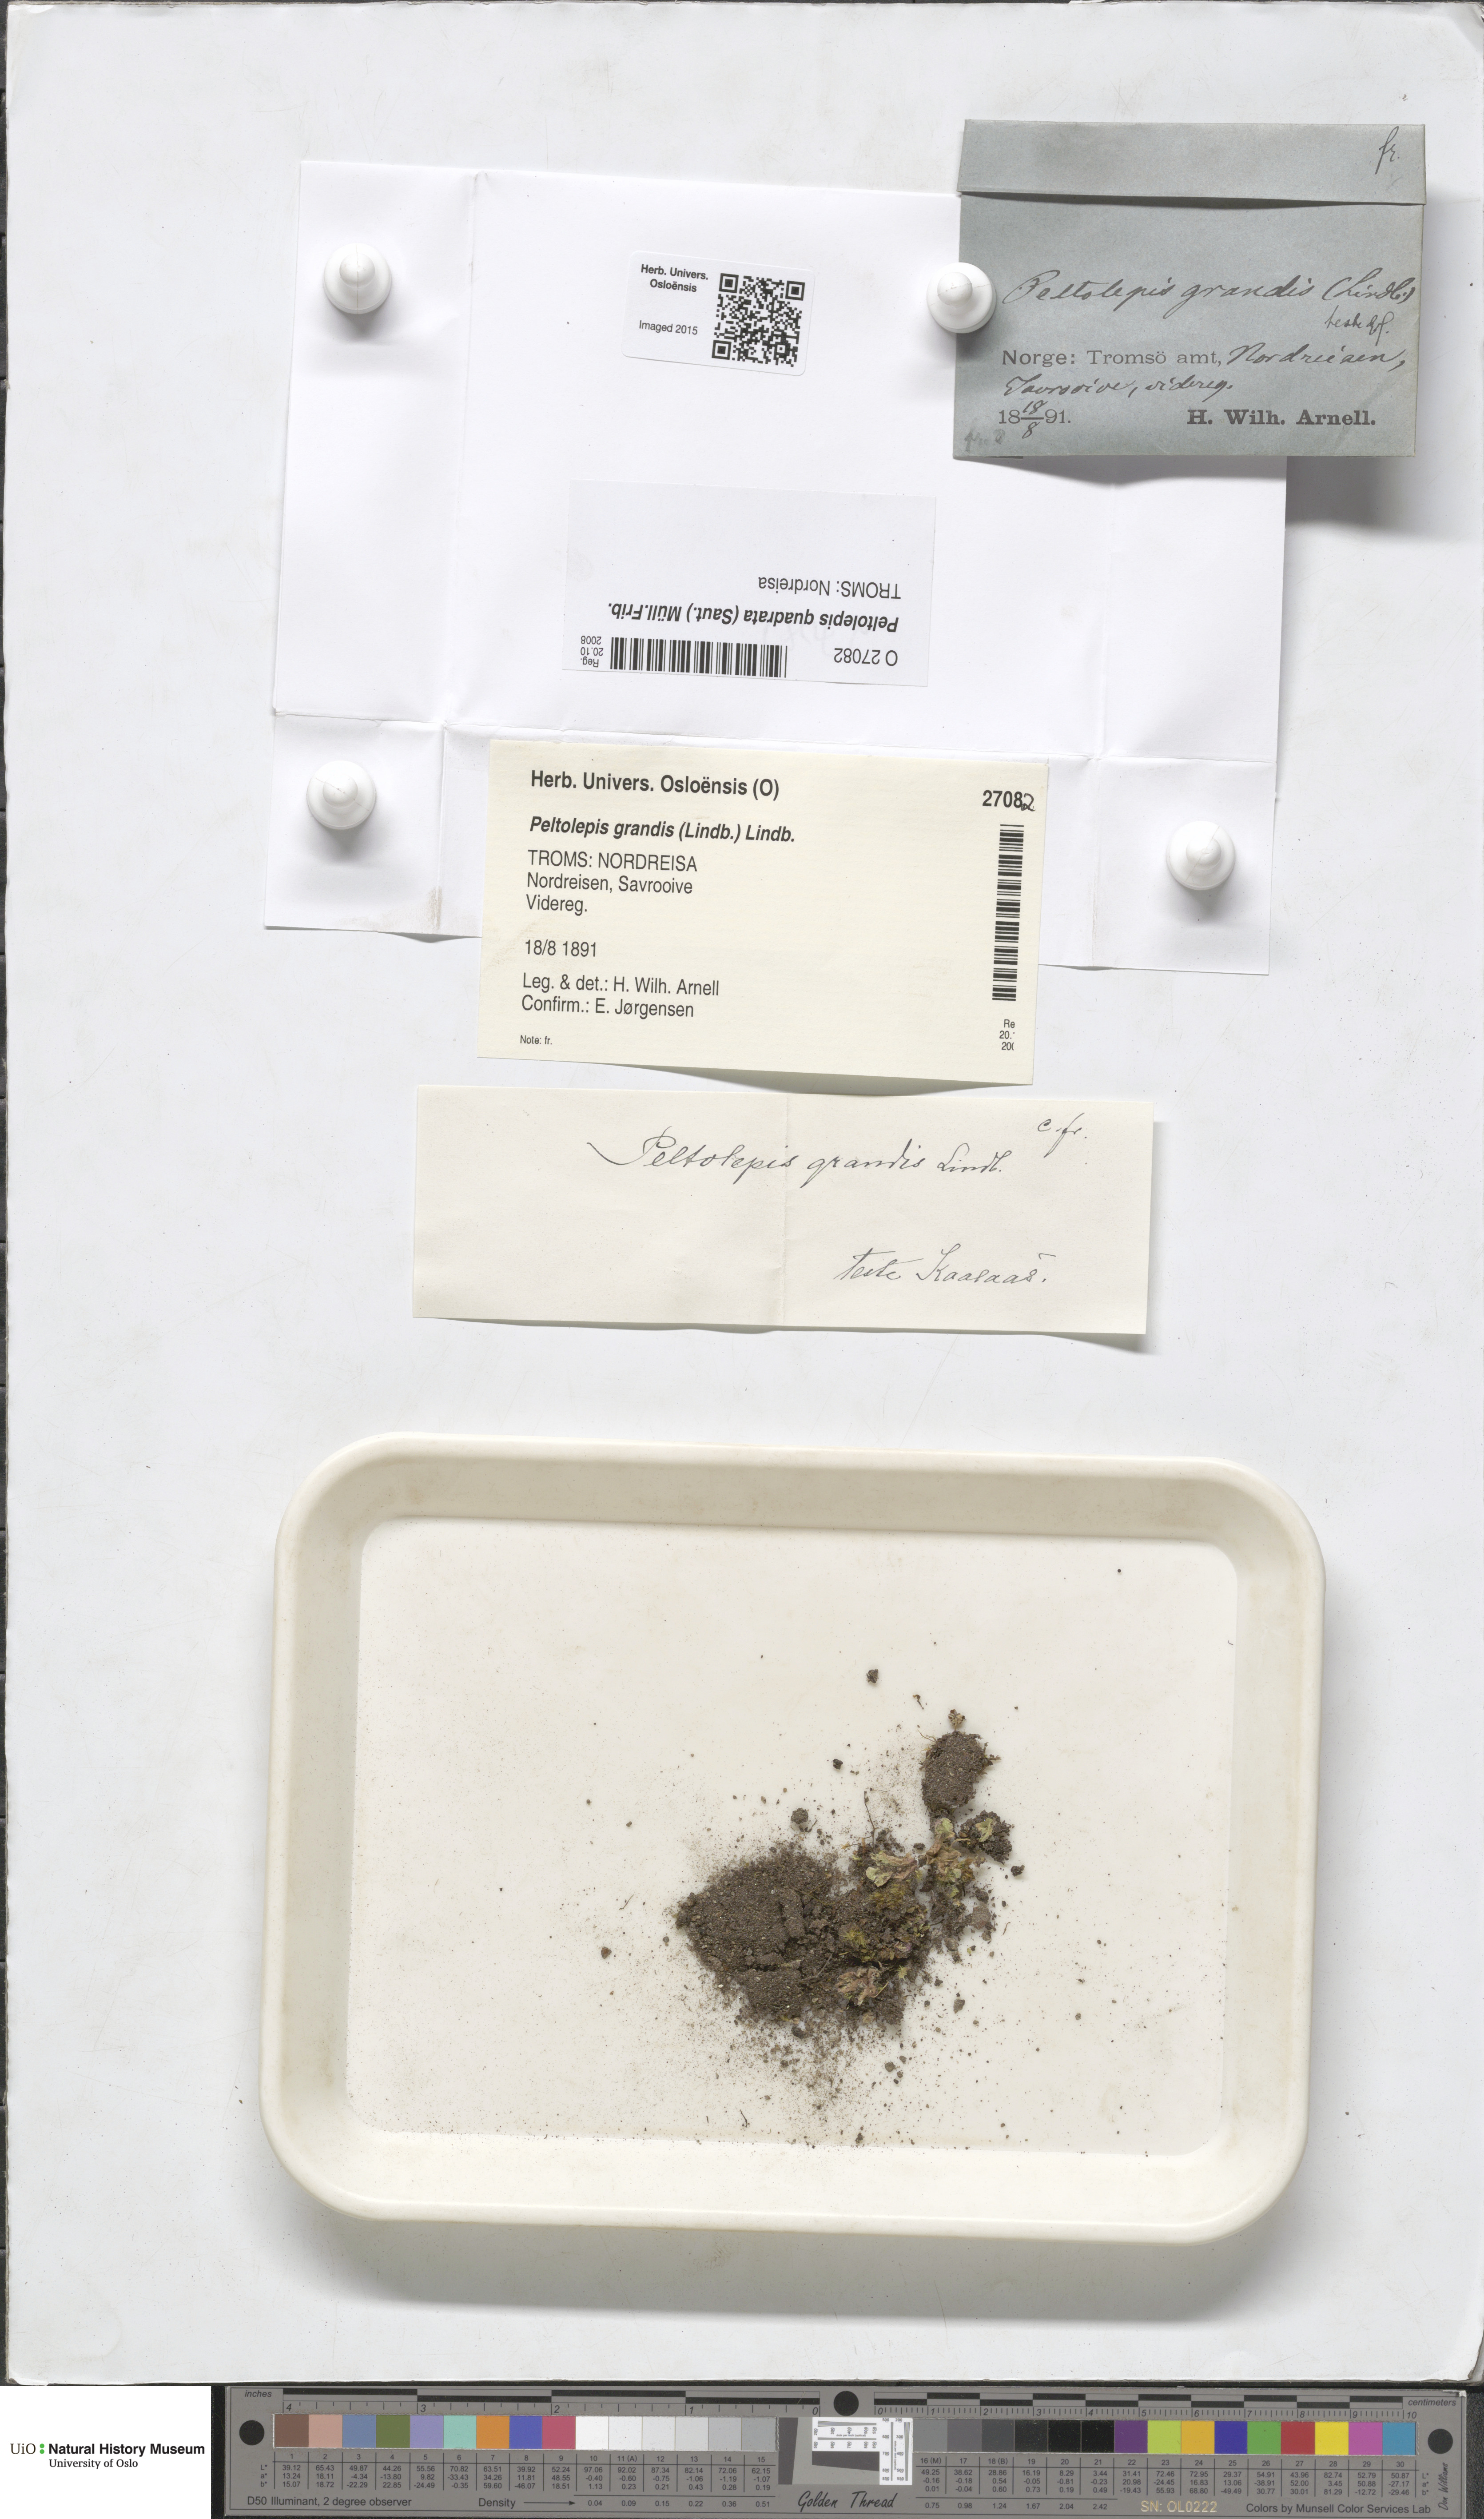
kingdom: Plantae
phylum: Marchantiophyta
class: Marchantiopsida
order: Marchantiales
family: Cleveaceae
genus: Peltolepis
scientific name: Peltolepis quadrata
